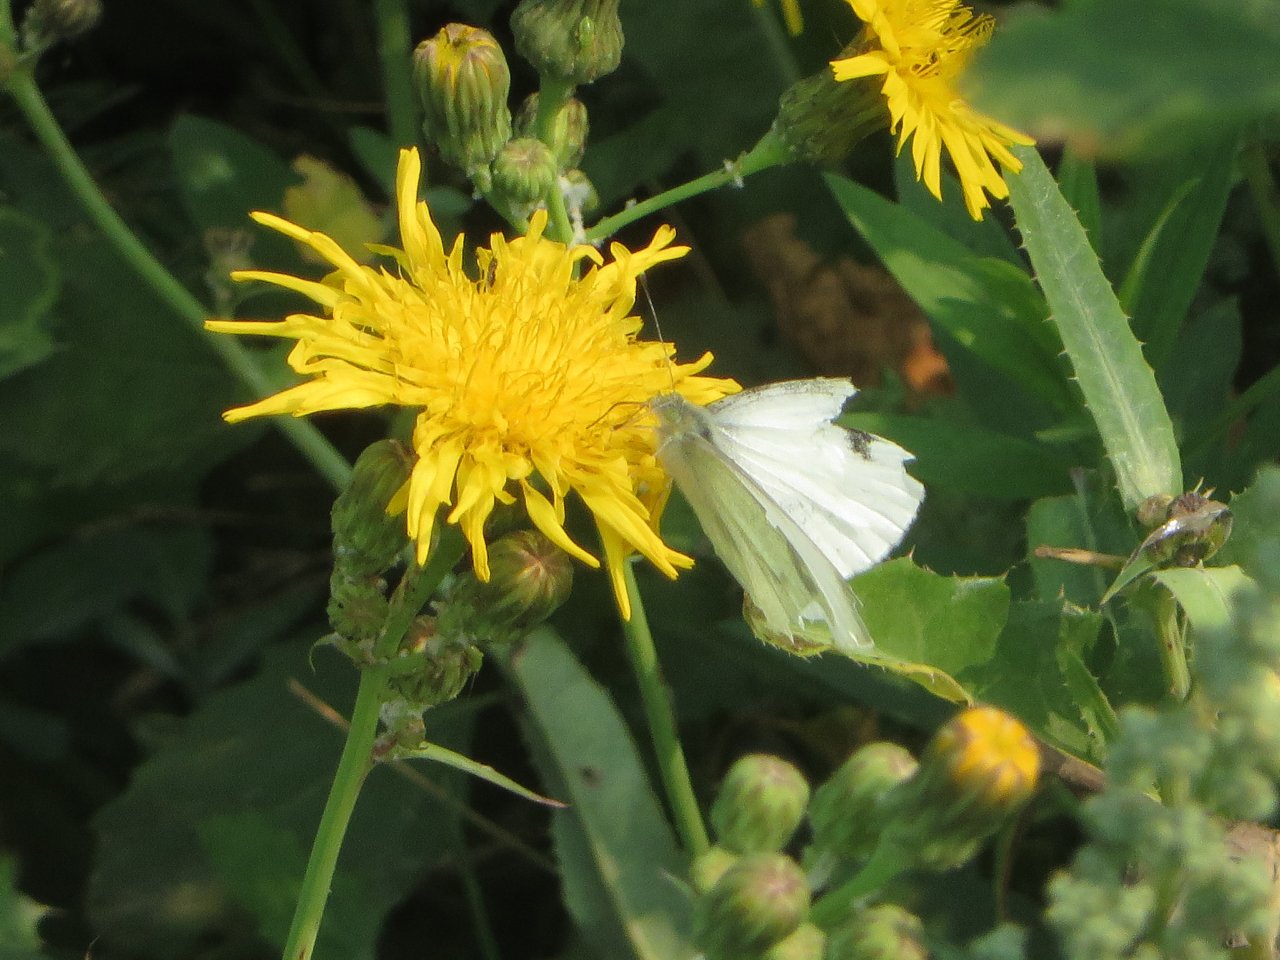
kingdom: Animalia
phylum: Arthropoda
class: Insecta
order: Lepidoptera
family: Pieridae
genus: Pieris
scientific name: Pieris rapae
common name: Cabbage White
